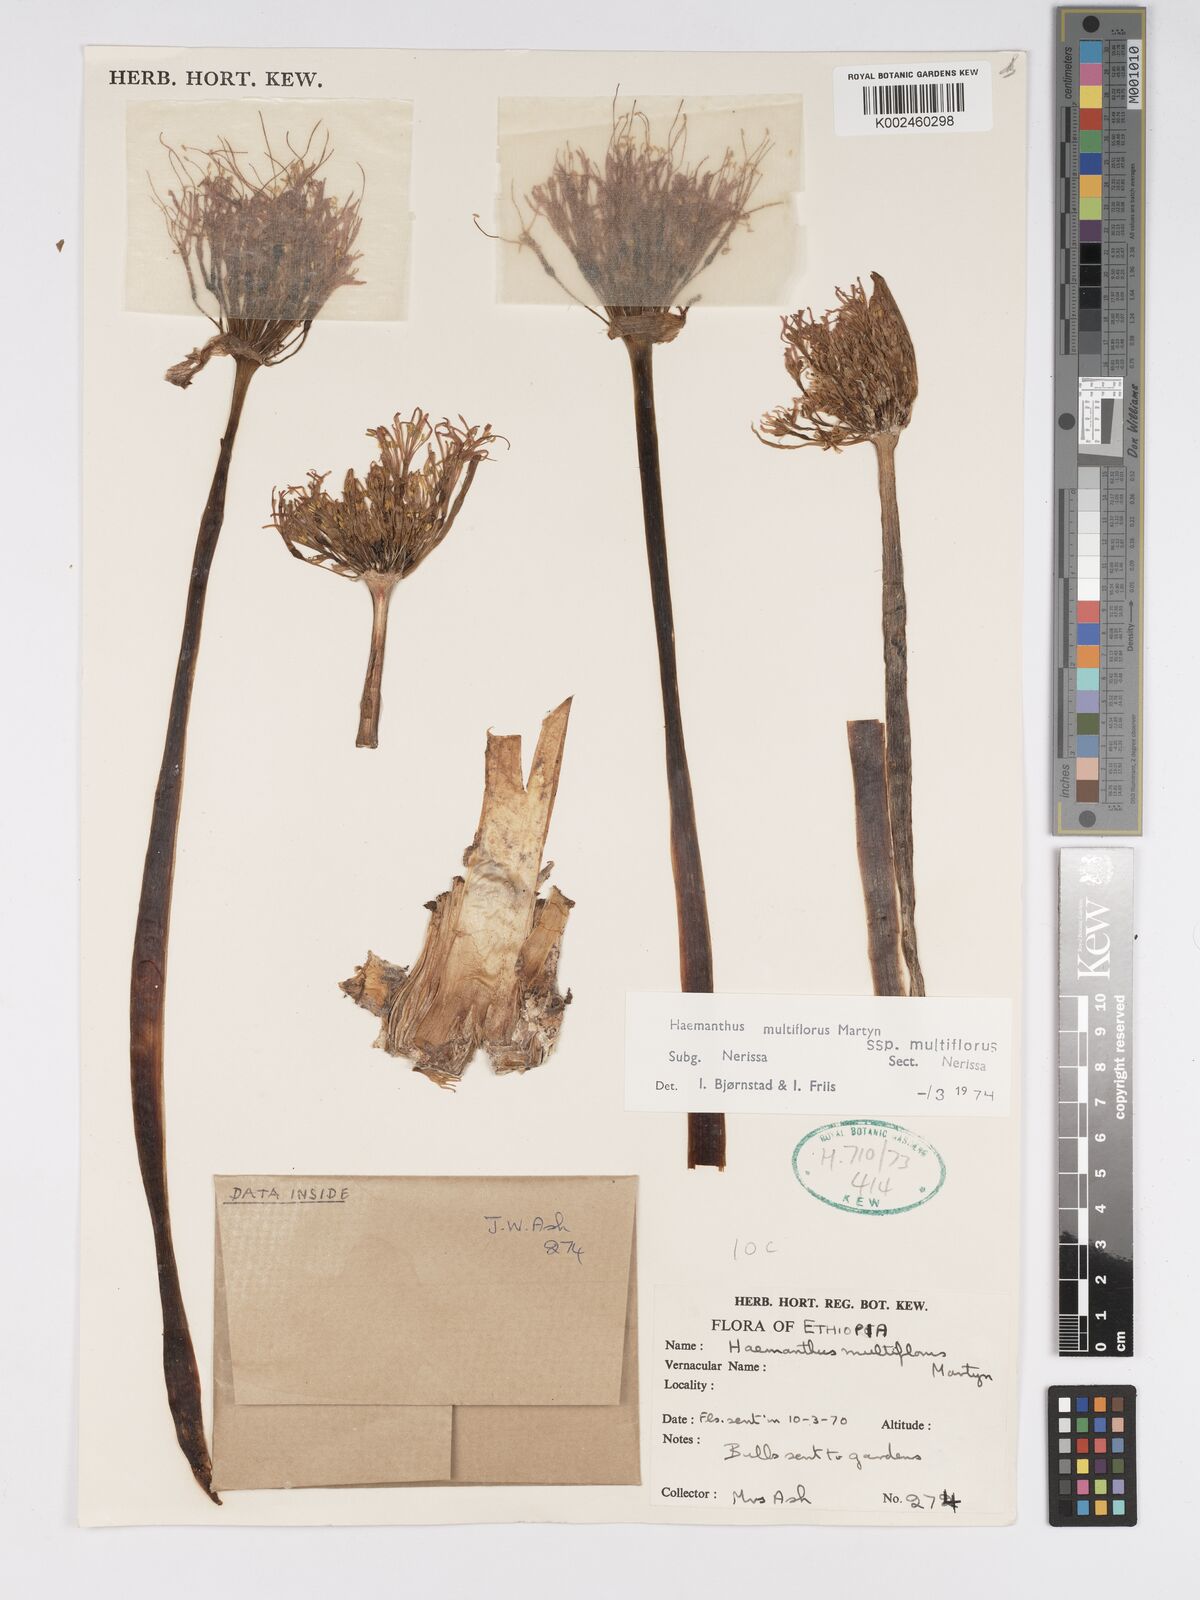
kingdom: Plantae
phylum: Tracheophyta
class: Liliopsida
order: Asparagales
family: Amaryllidaceae
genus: Scadoxus
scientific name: Scadoxus multiflorus
